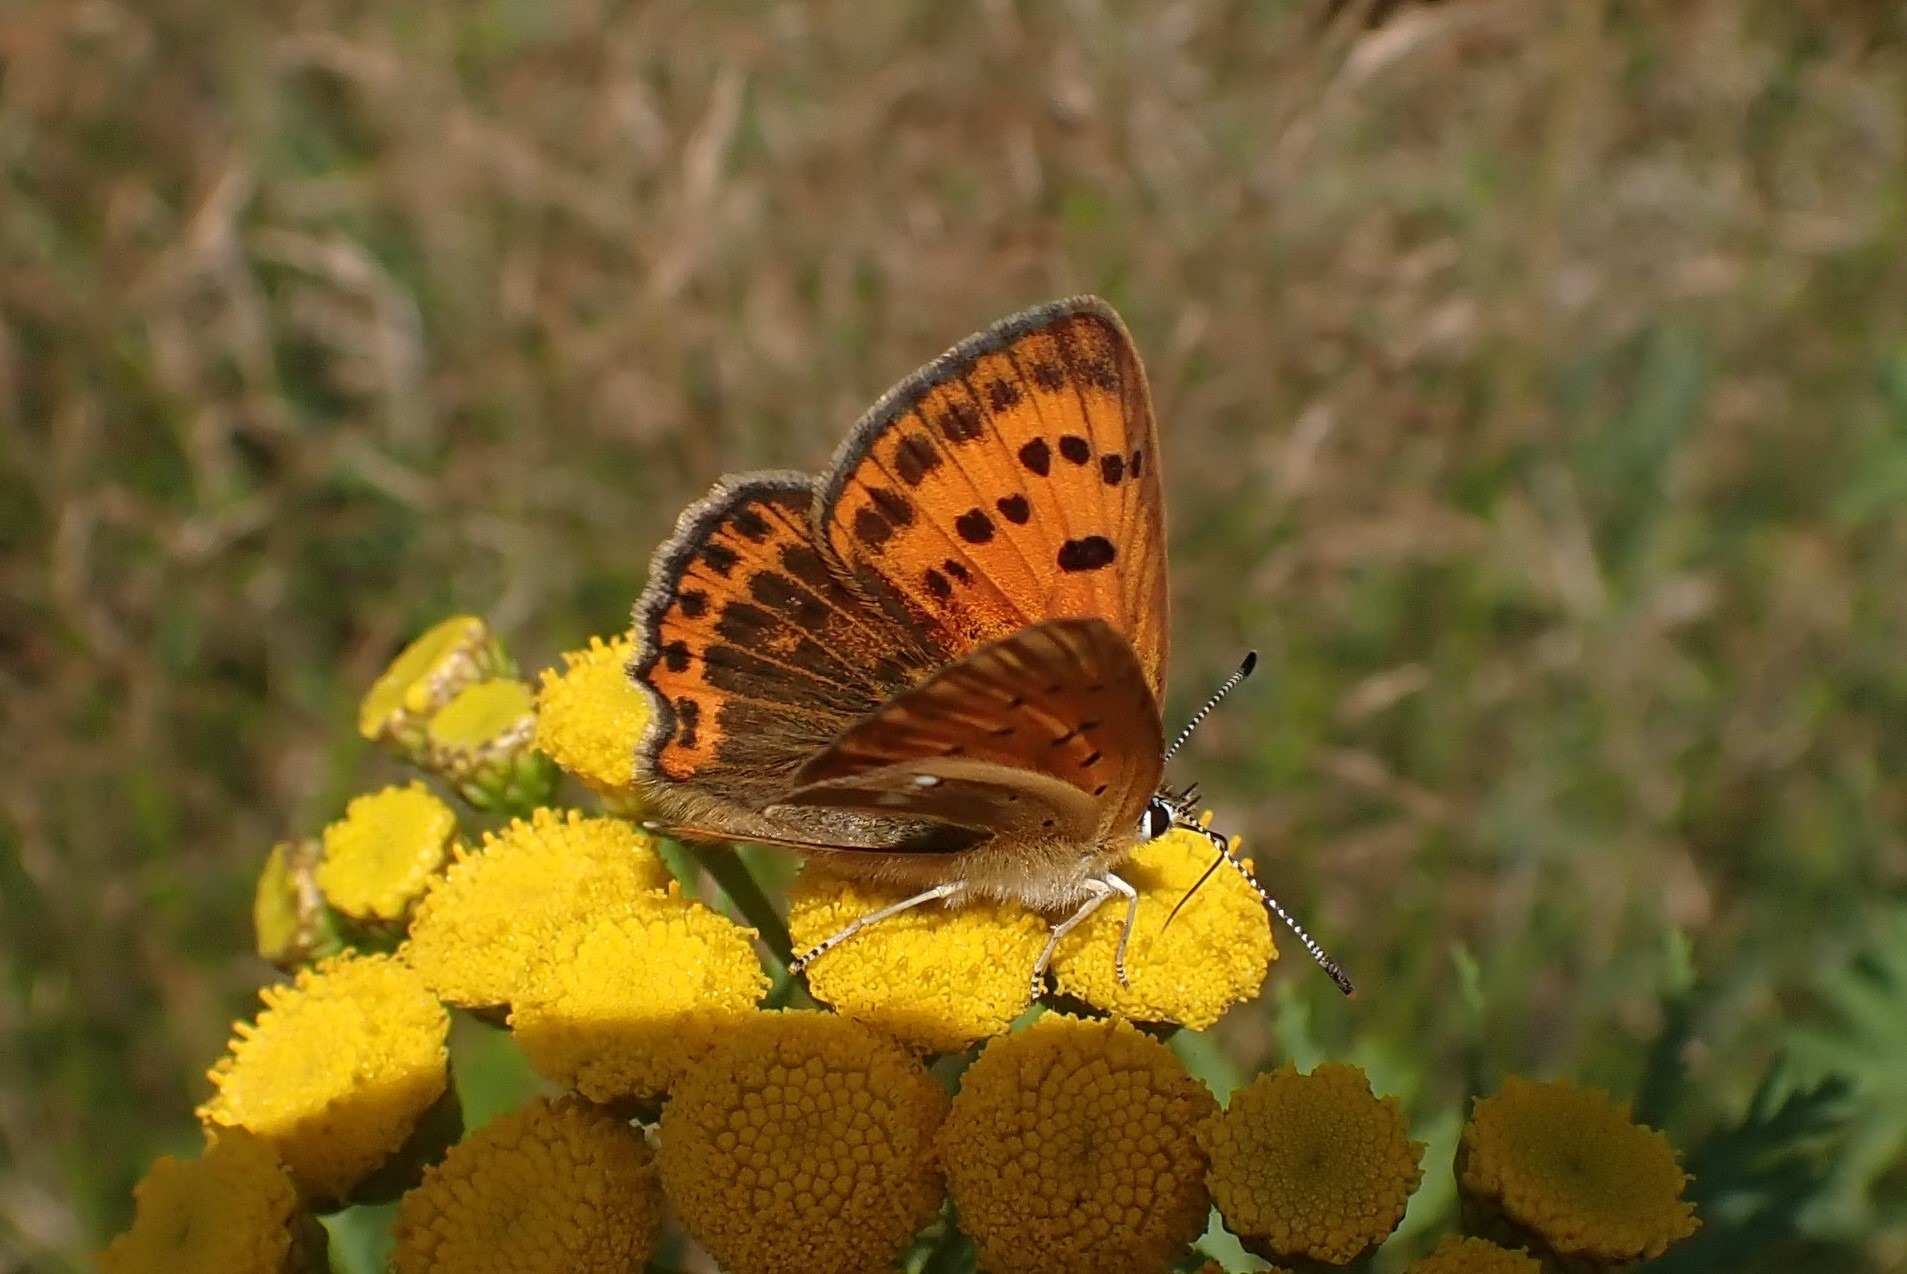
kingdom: Animalia
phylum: Arthropoda
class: Insecta
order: Lepidoptera
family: Lycaenidae
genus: Lycaena
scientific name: Lycaena virgaureae
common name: Dukatsommerfugl
